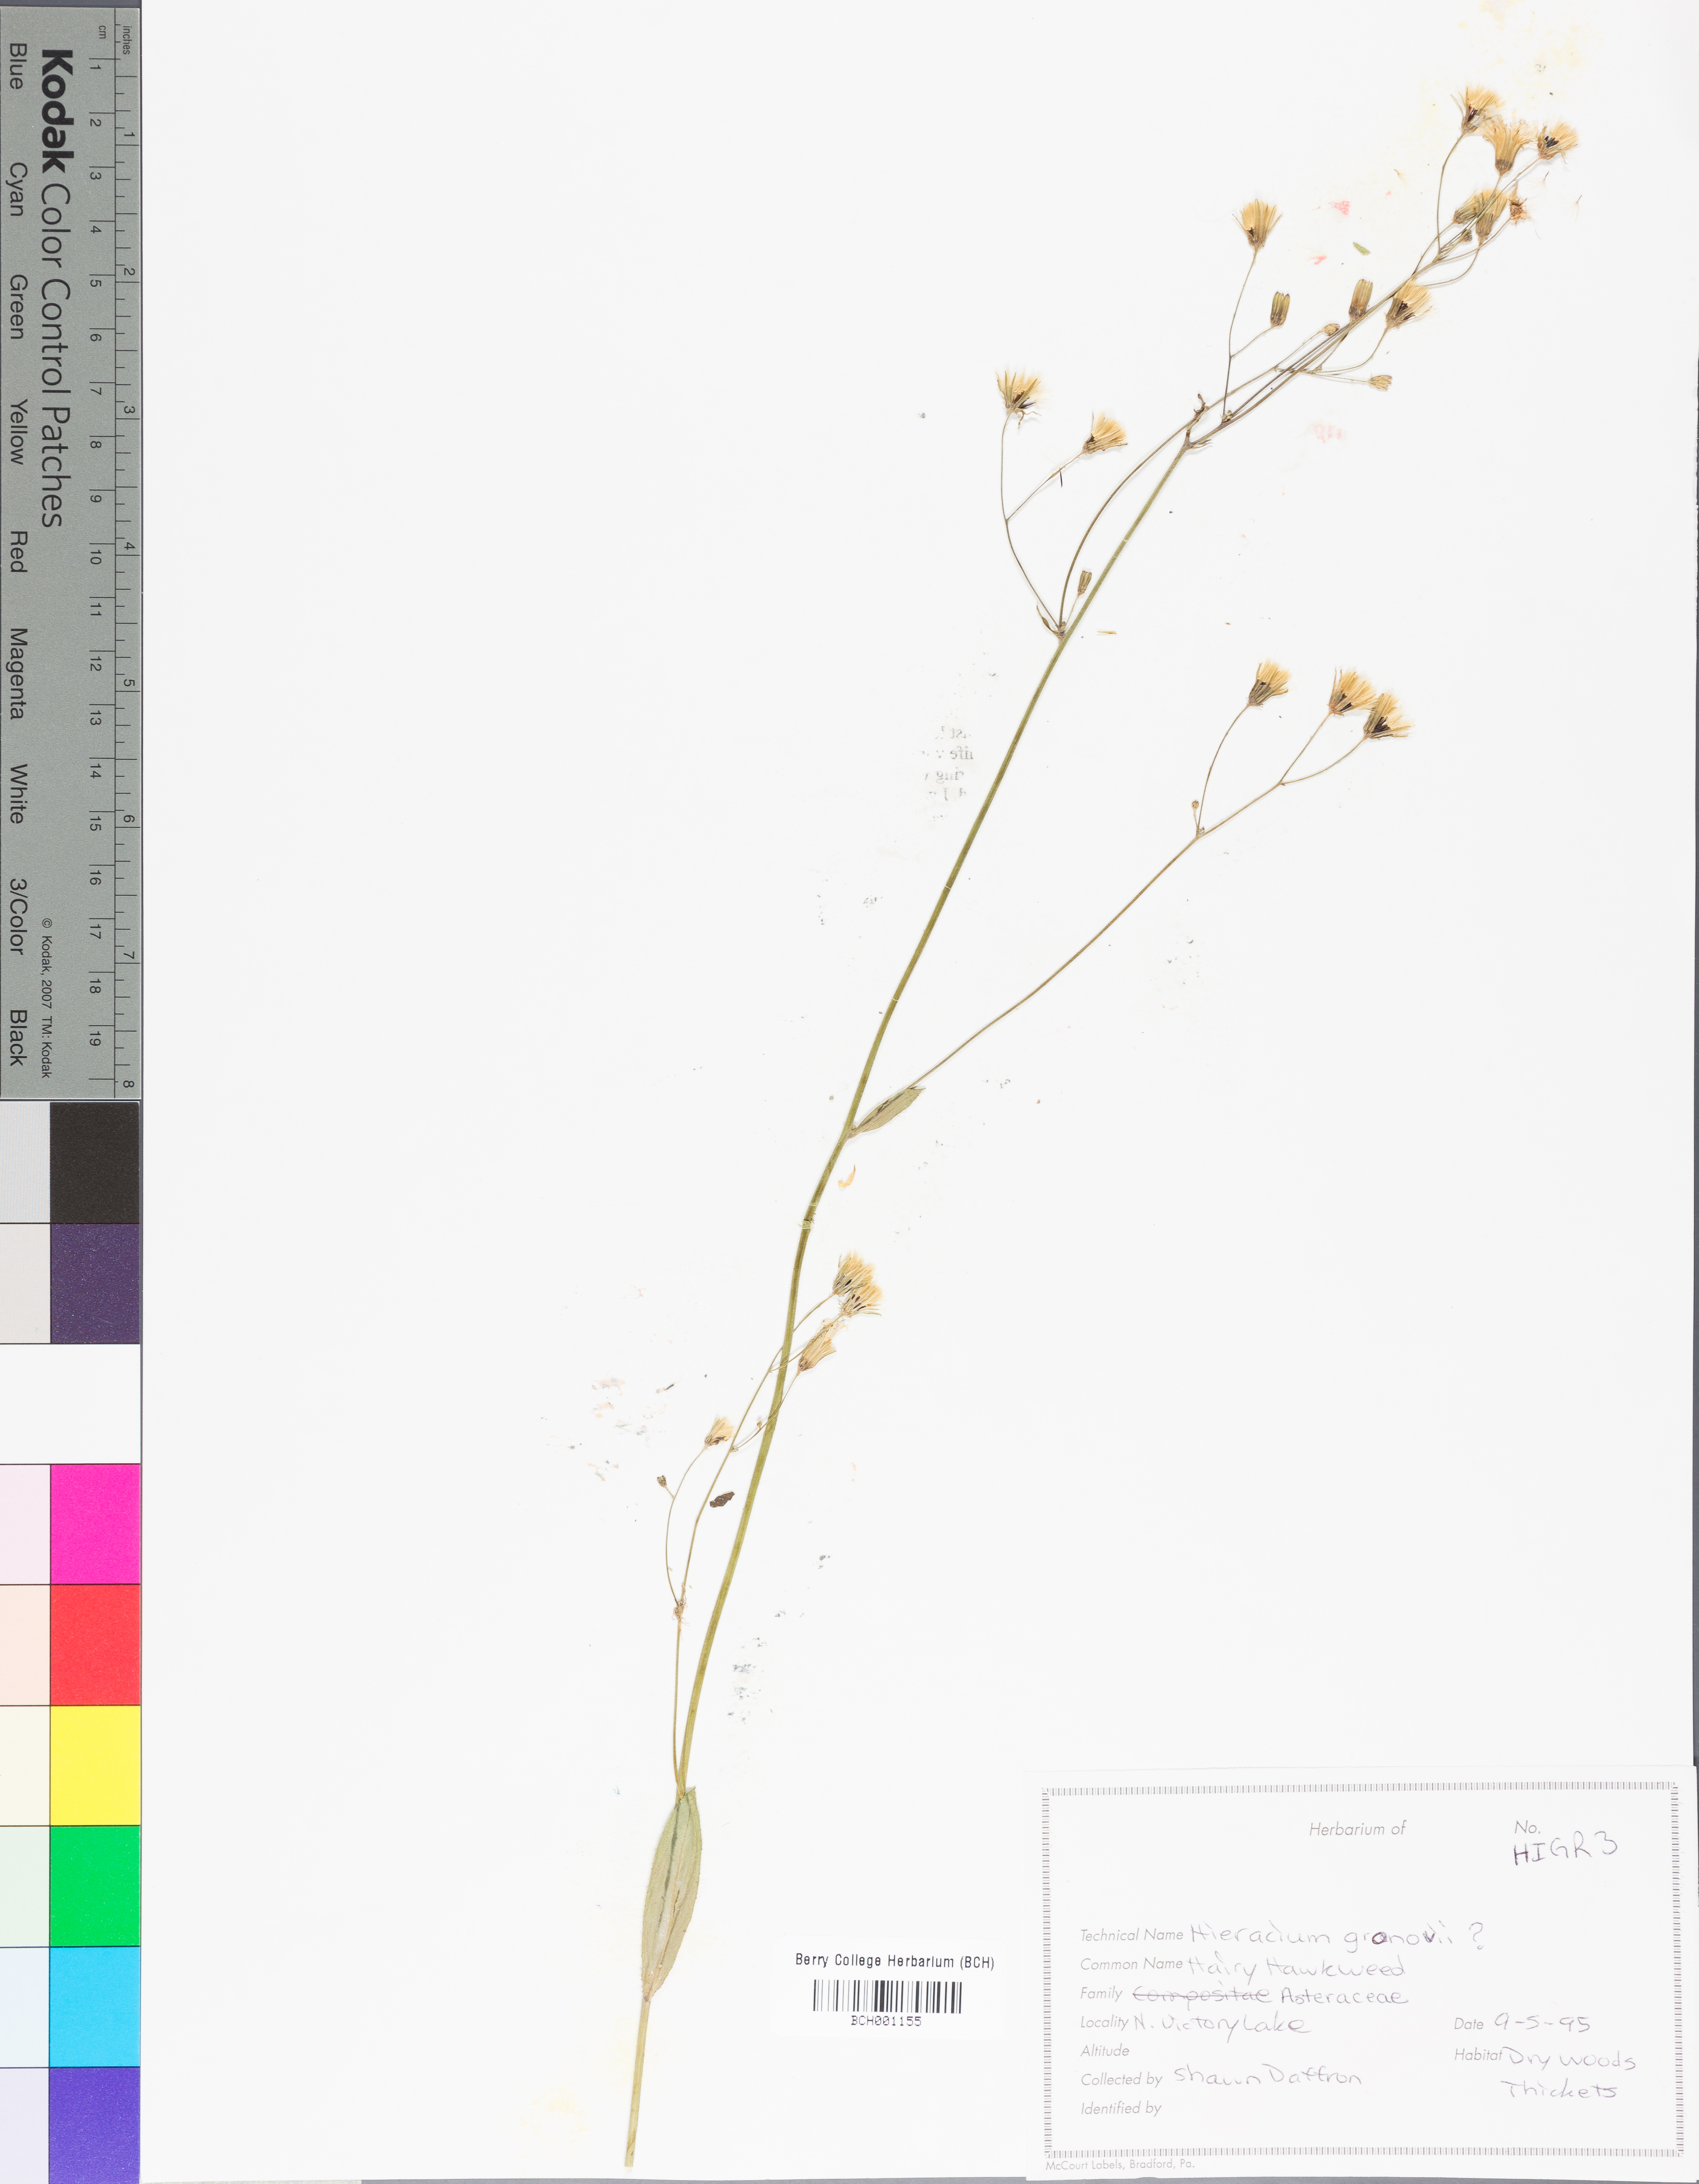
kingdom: Plantae
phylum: Tracheophyta
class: Magnoliopsida
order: Asterales
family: Asteraceae
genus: Hieracium
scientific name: Hieracium gronovii
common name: Beaked hawkweed
